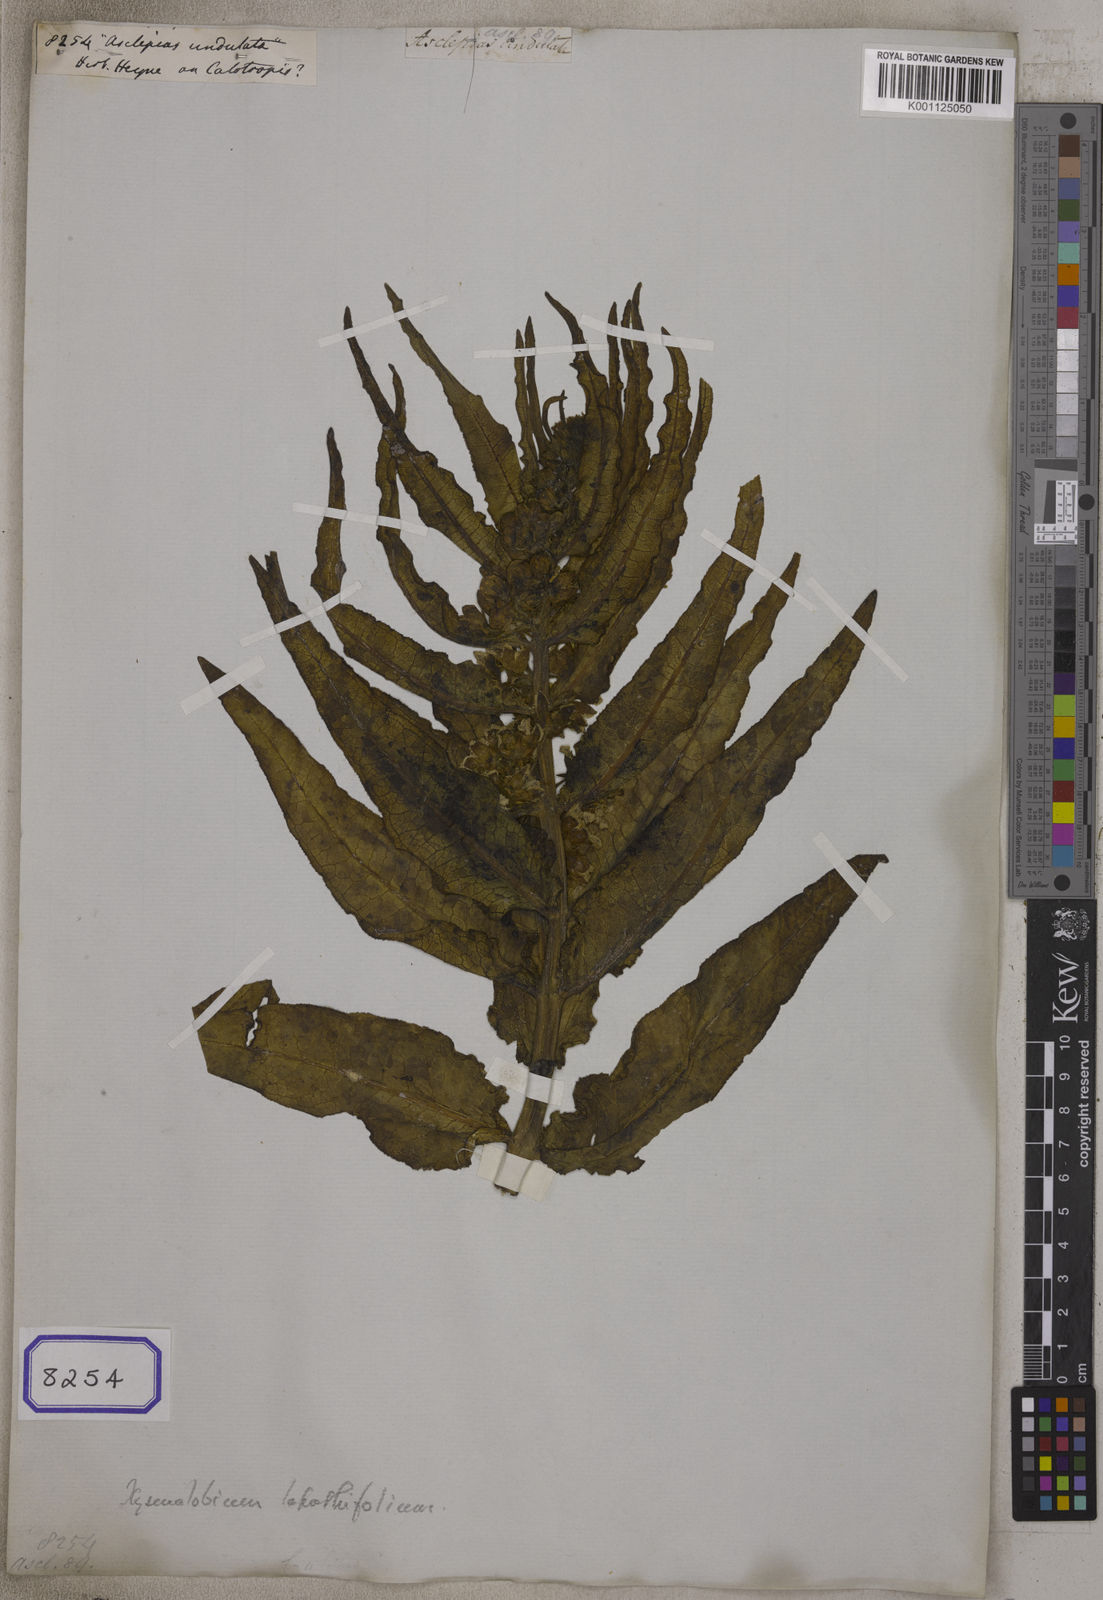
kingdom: Plantae
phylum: Tracheophyta
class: Magnoliopsida
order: Gentianales
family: Apocynaceae
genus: Asclepias
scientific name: Asclepias crispa
